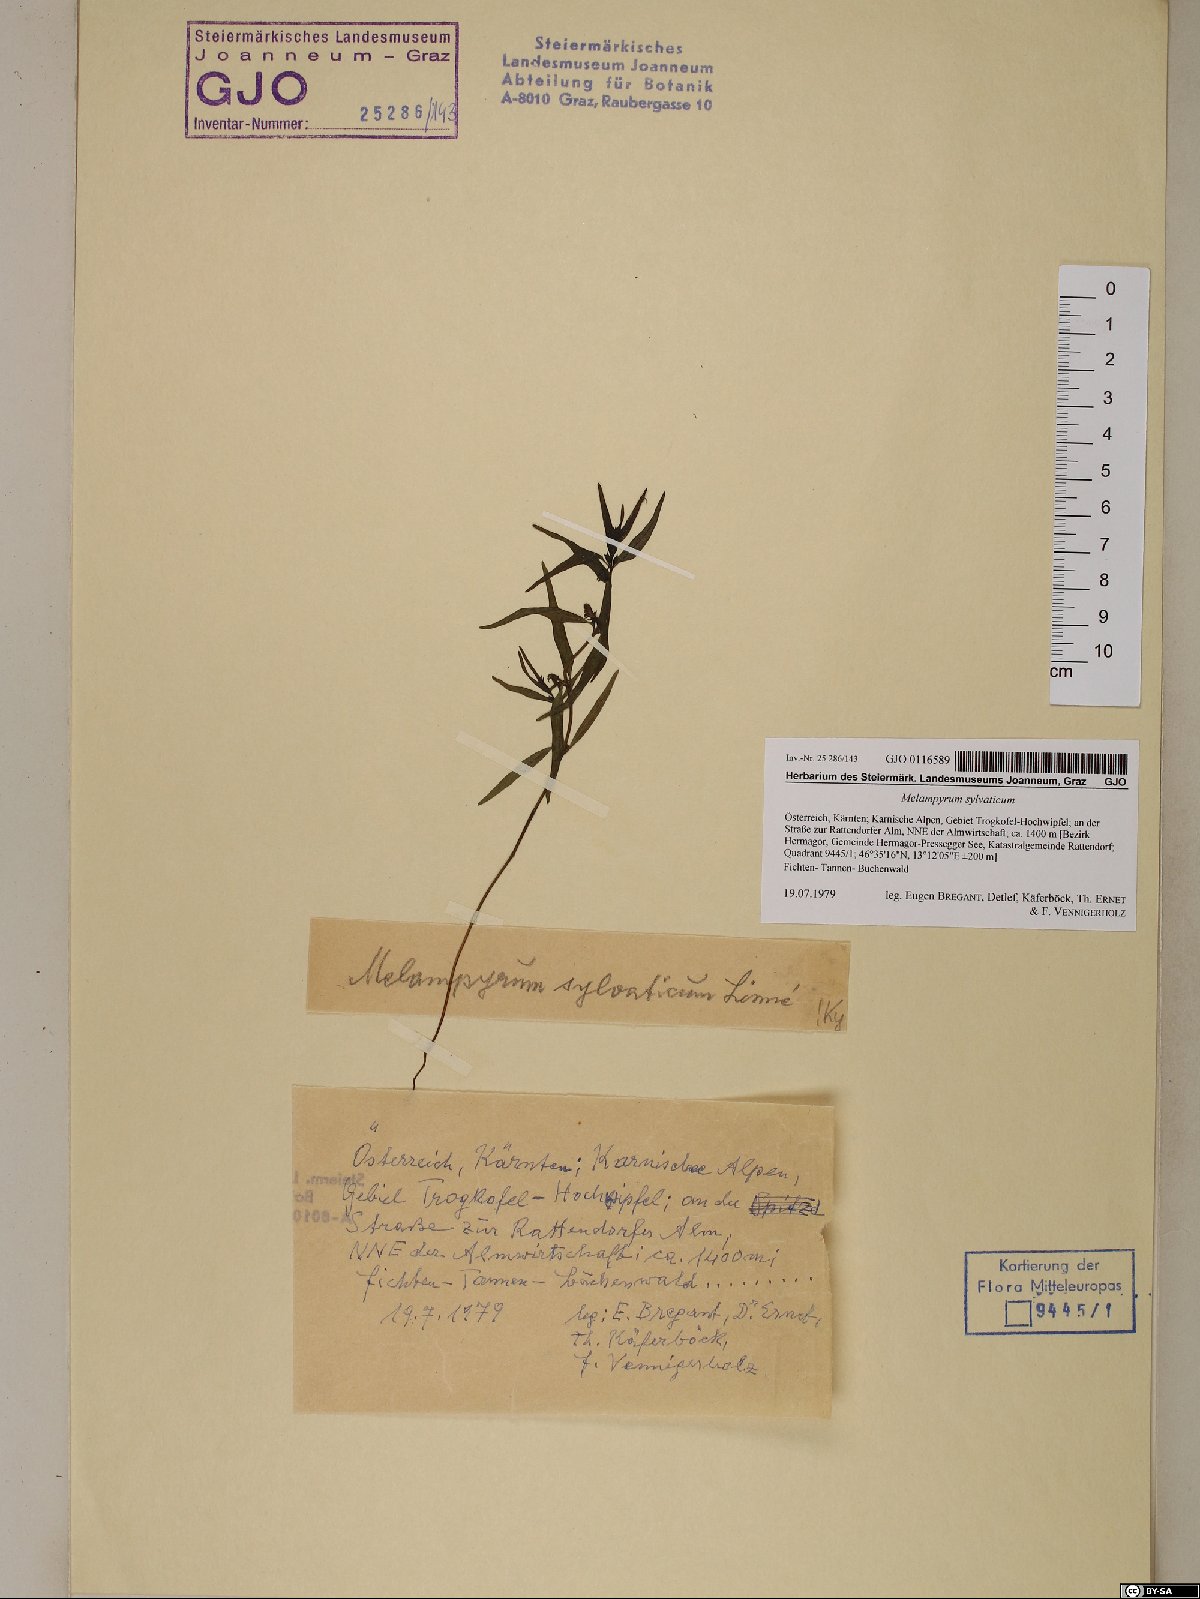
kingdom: Plantae
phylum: Tracheophyta
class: Magnoliopsida
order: Lamiales
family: Orobanchaceae
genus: Melampyrum
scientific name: Melampyrum sylvaticum
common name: Small cow-wheat
